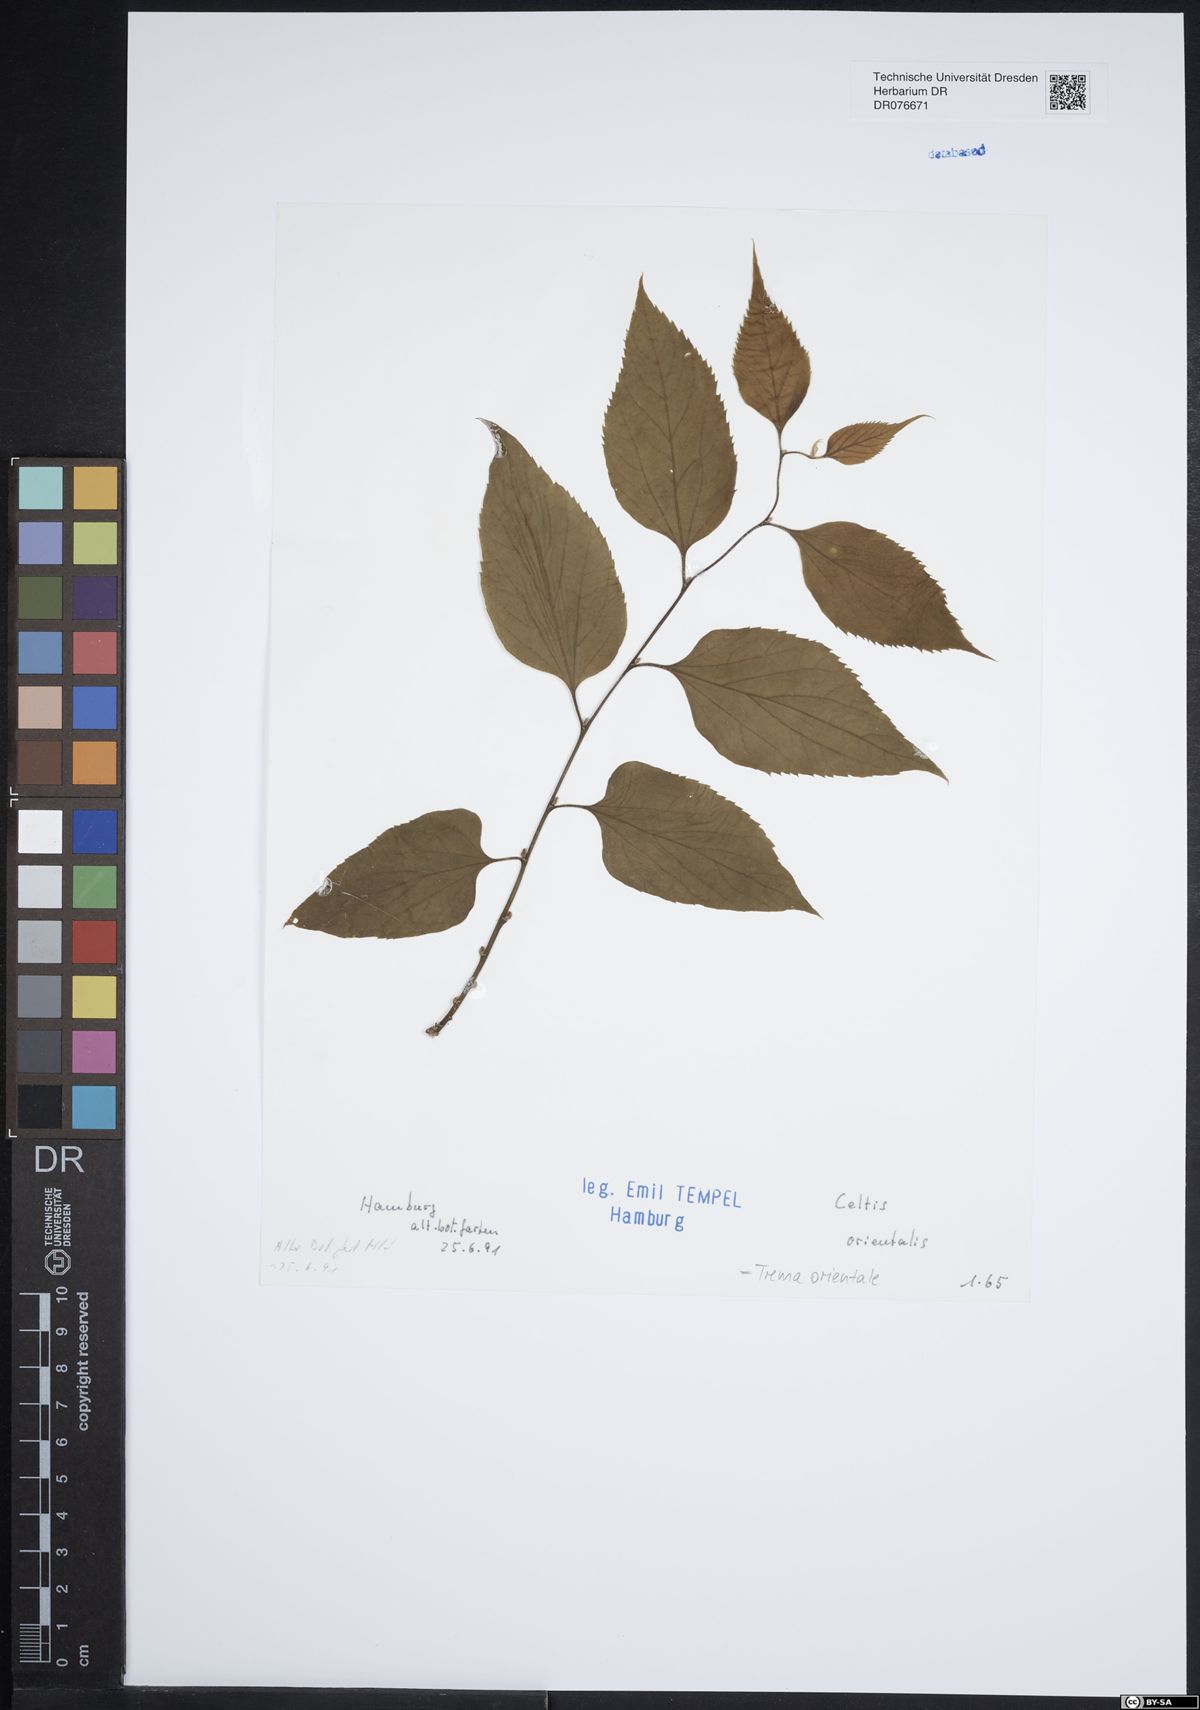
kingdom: Plantae
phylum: Tracheophyta
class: Magnoliopsida
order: Rosales
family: Cannabaceae
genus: Trema
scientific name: Trema orientale
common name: Indian charcoal tree
